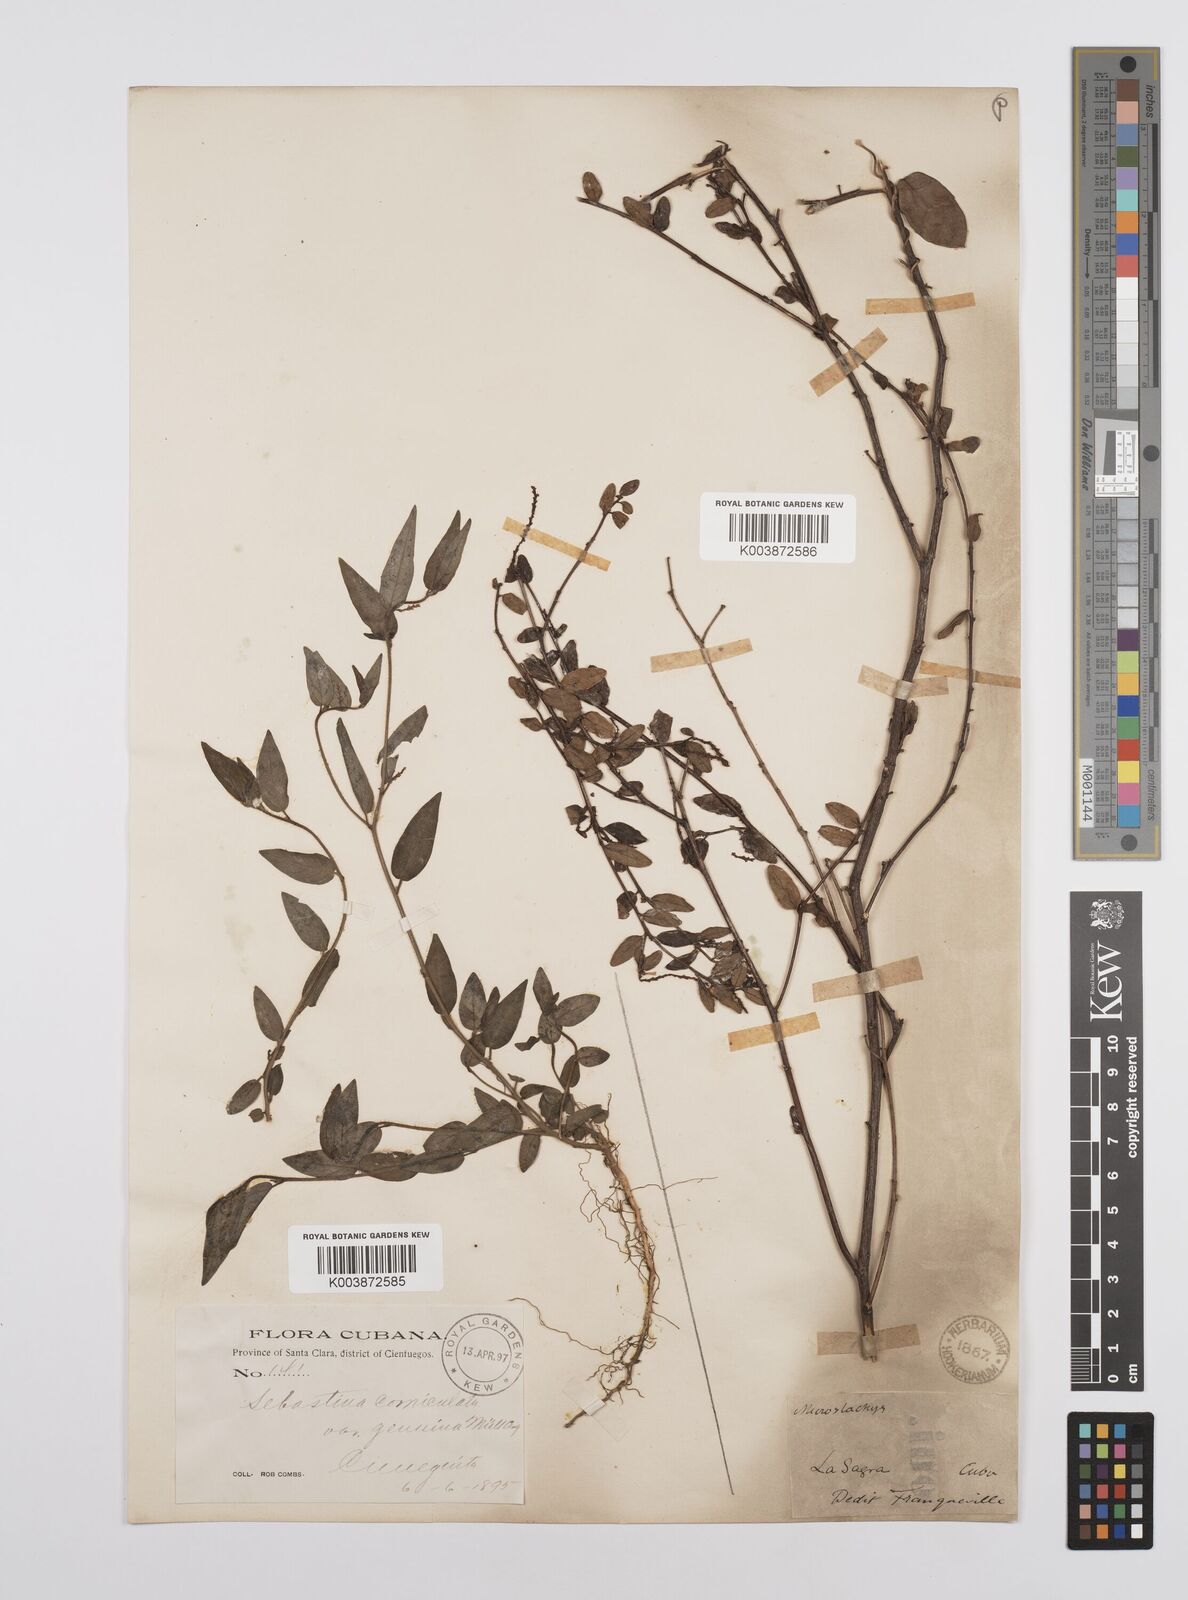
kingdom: Plantae
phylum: Tracheophyta
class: Magnoliopsida
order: Malpighiales
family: Euphorbiaceae
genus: Microstachys
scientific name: Microstachys corniculata
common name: Hato tejas
